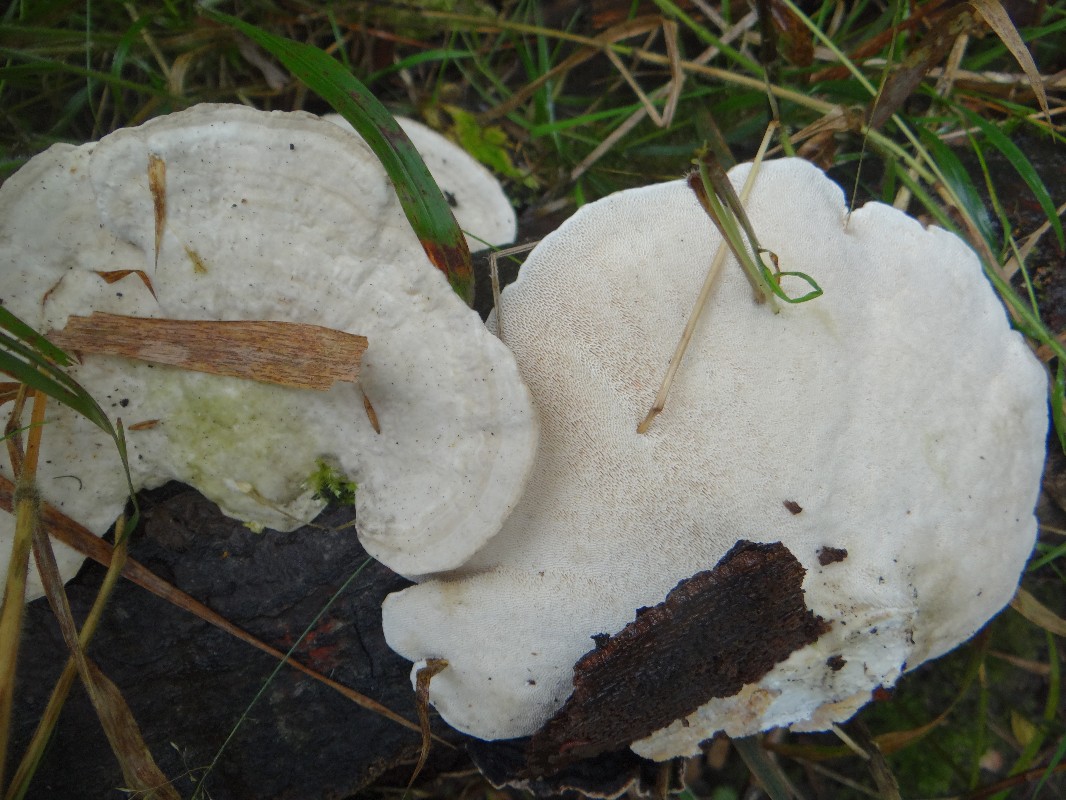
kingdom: Fungi
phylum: Basidiomycota
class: Agaricomycetes
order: Polyporales
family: Polyporaceae
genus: Trametes
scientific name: Trametes gibbosa
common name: puklet læderporesvamp
